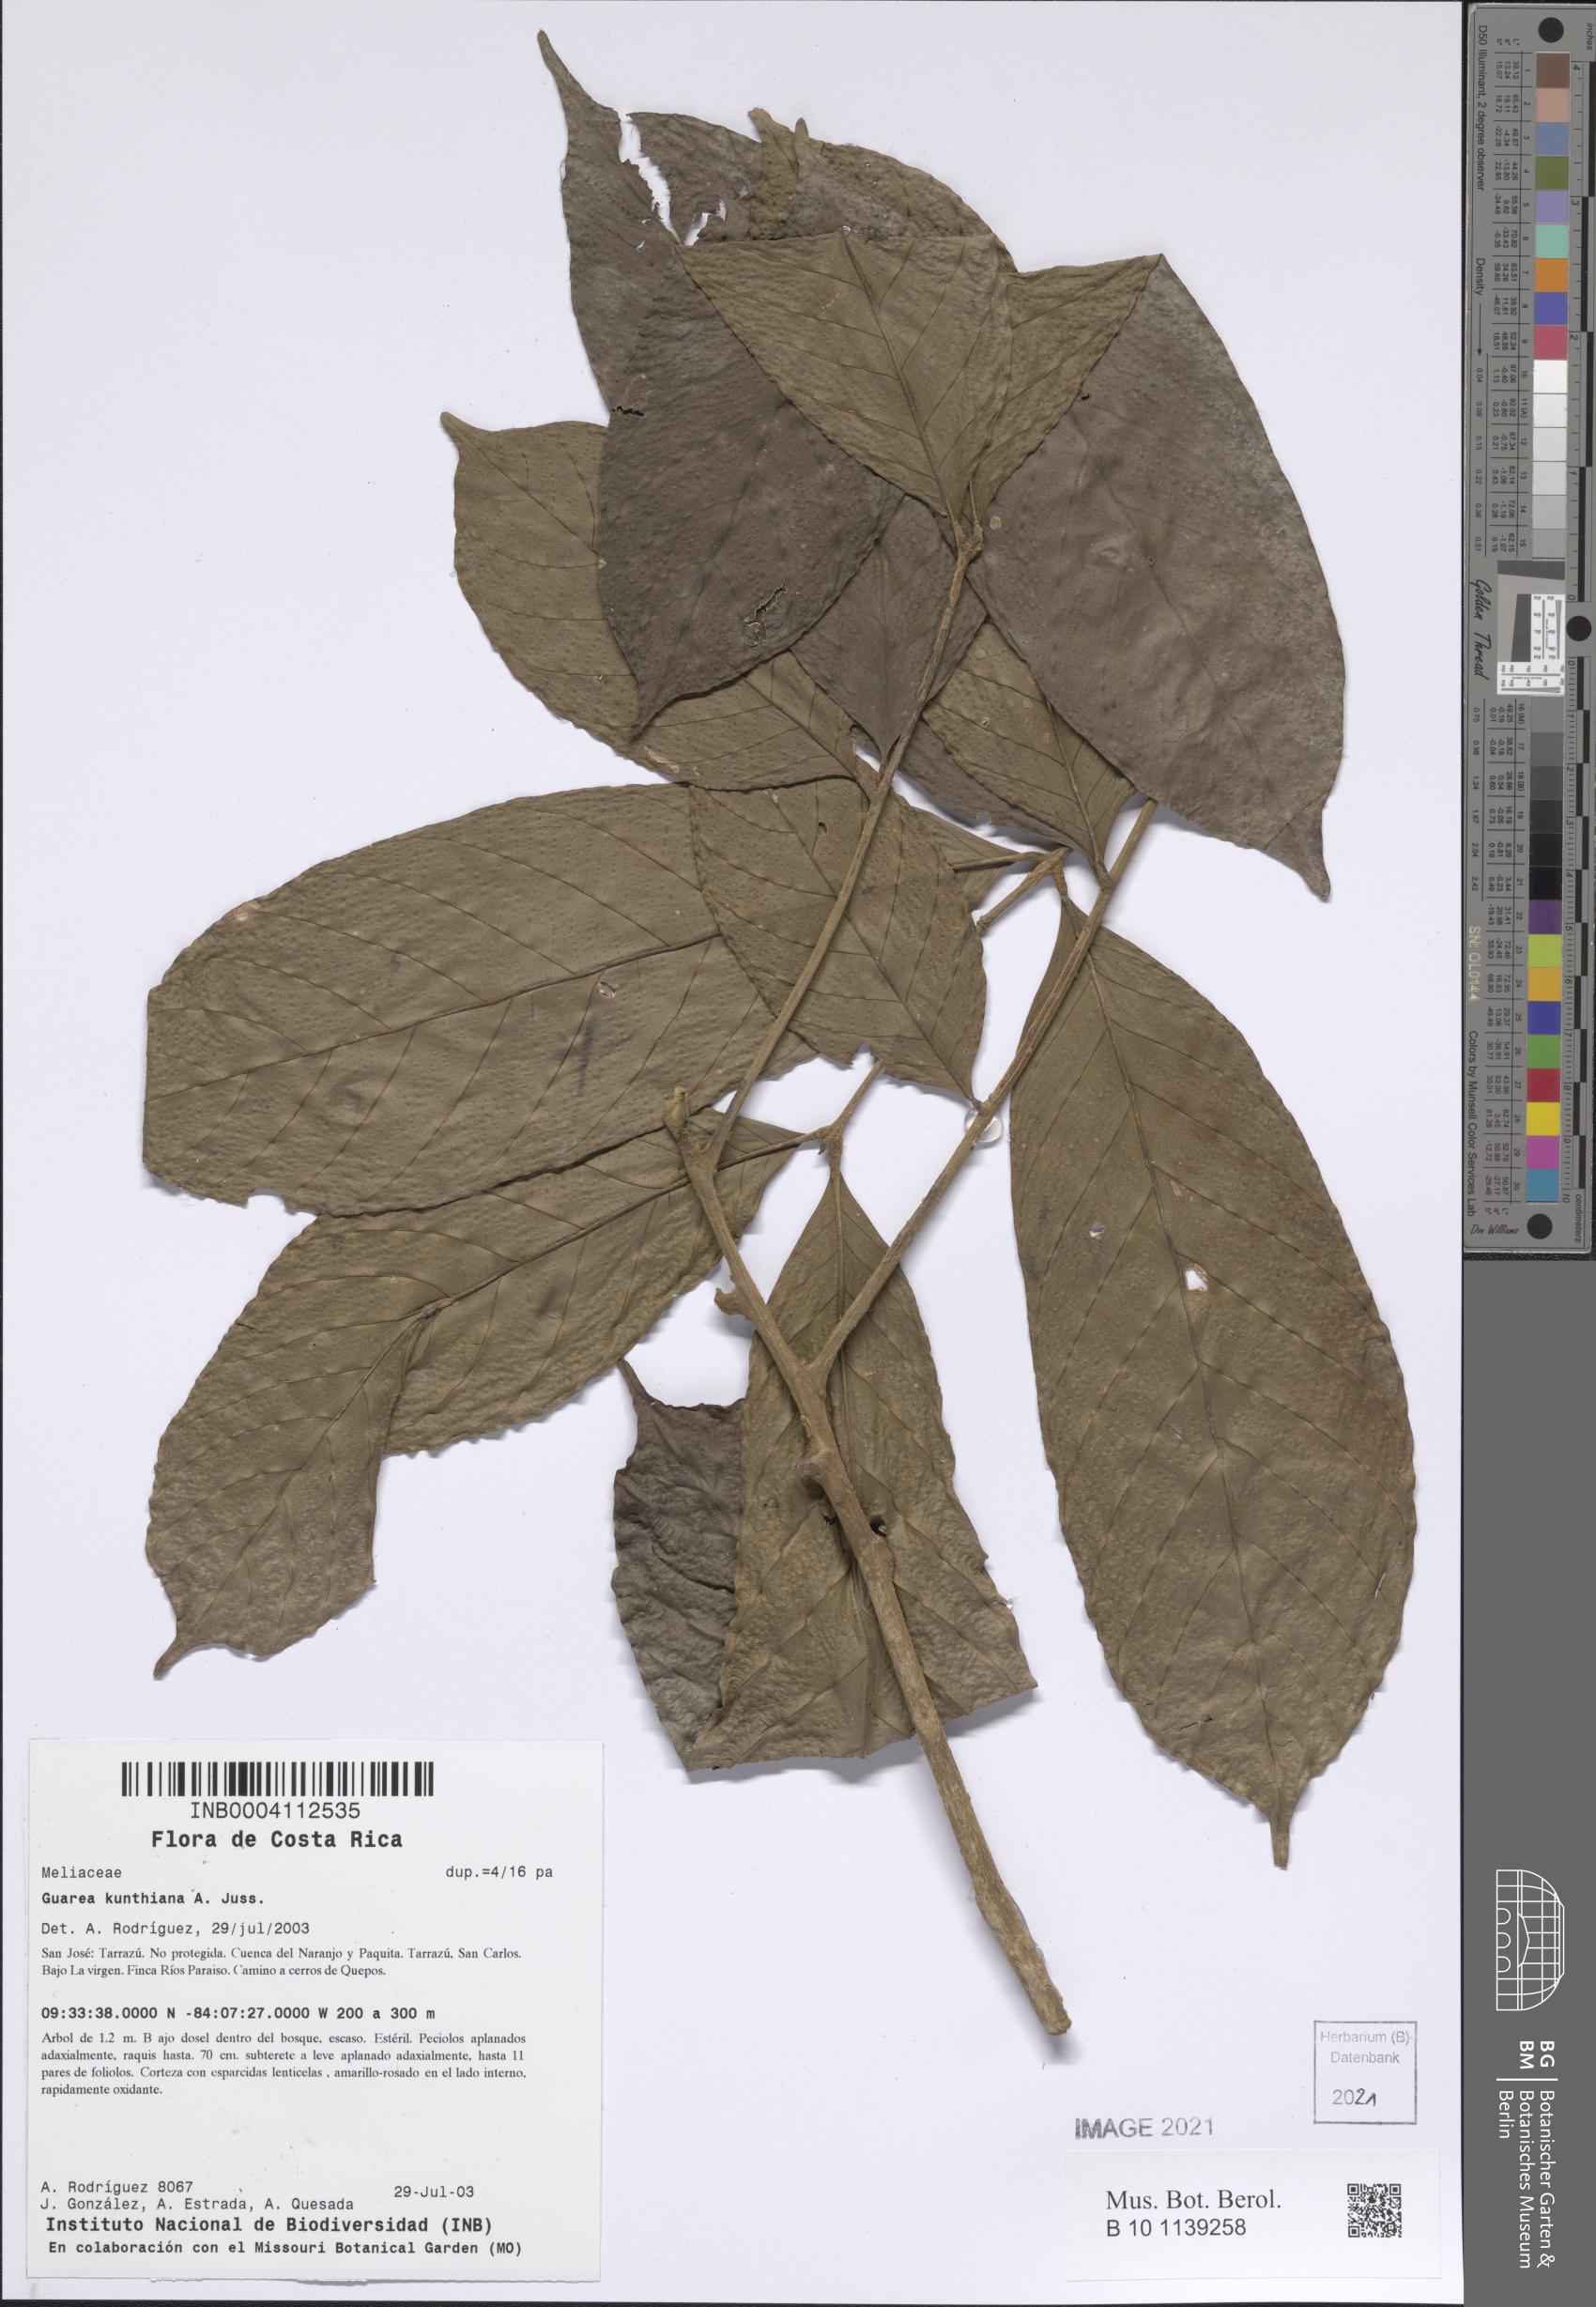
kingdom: Plantae
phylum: Tracheophyta
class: Magnoliopsida
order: Sapindales
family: Meliaceae
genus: Guarea
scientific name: Guarea kunthiana
